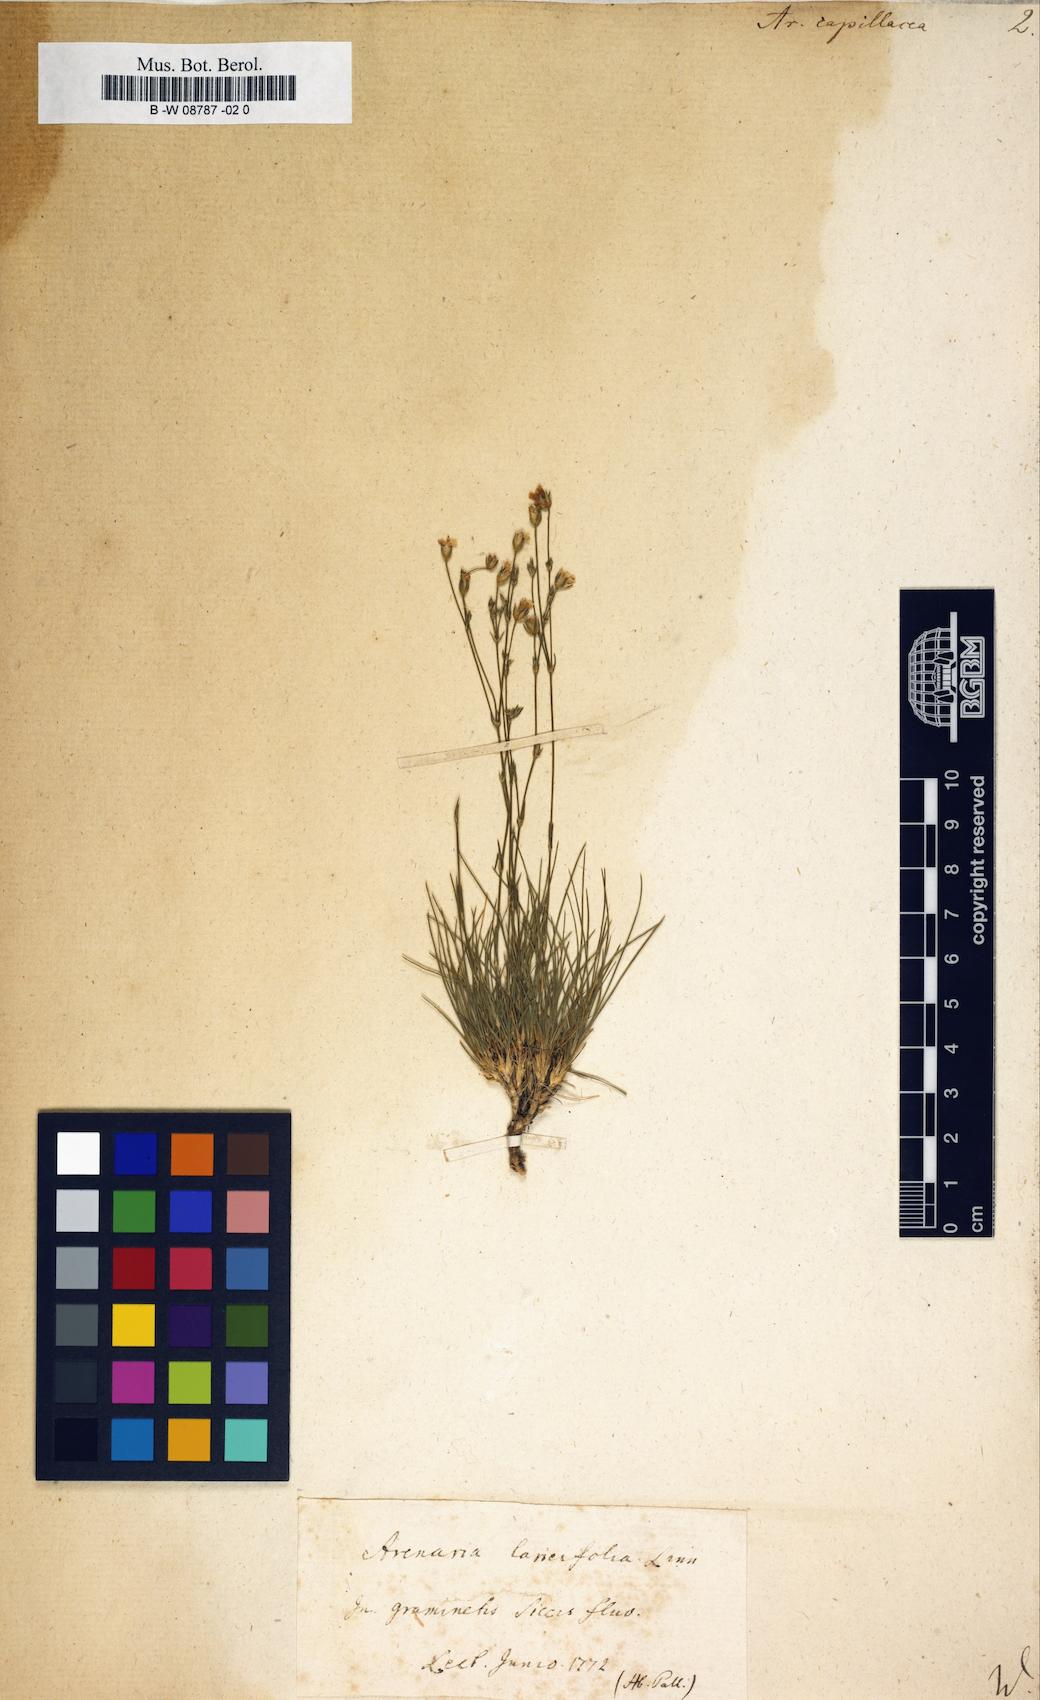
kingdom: Plantae
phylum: Tracheophyta
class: Magnoliopsida
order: Caryophyllales
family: Caryophyllaceae
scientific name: Caryophyllaceae
